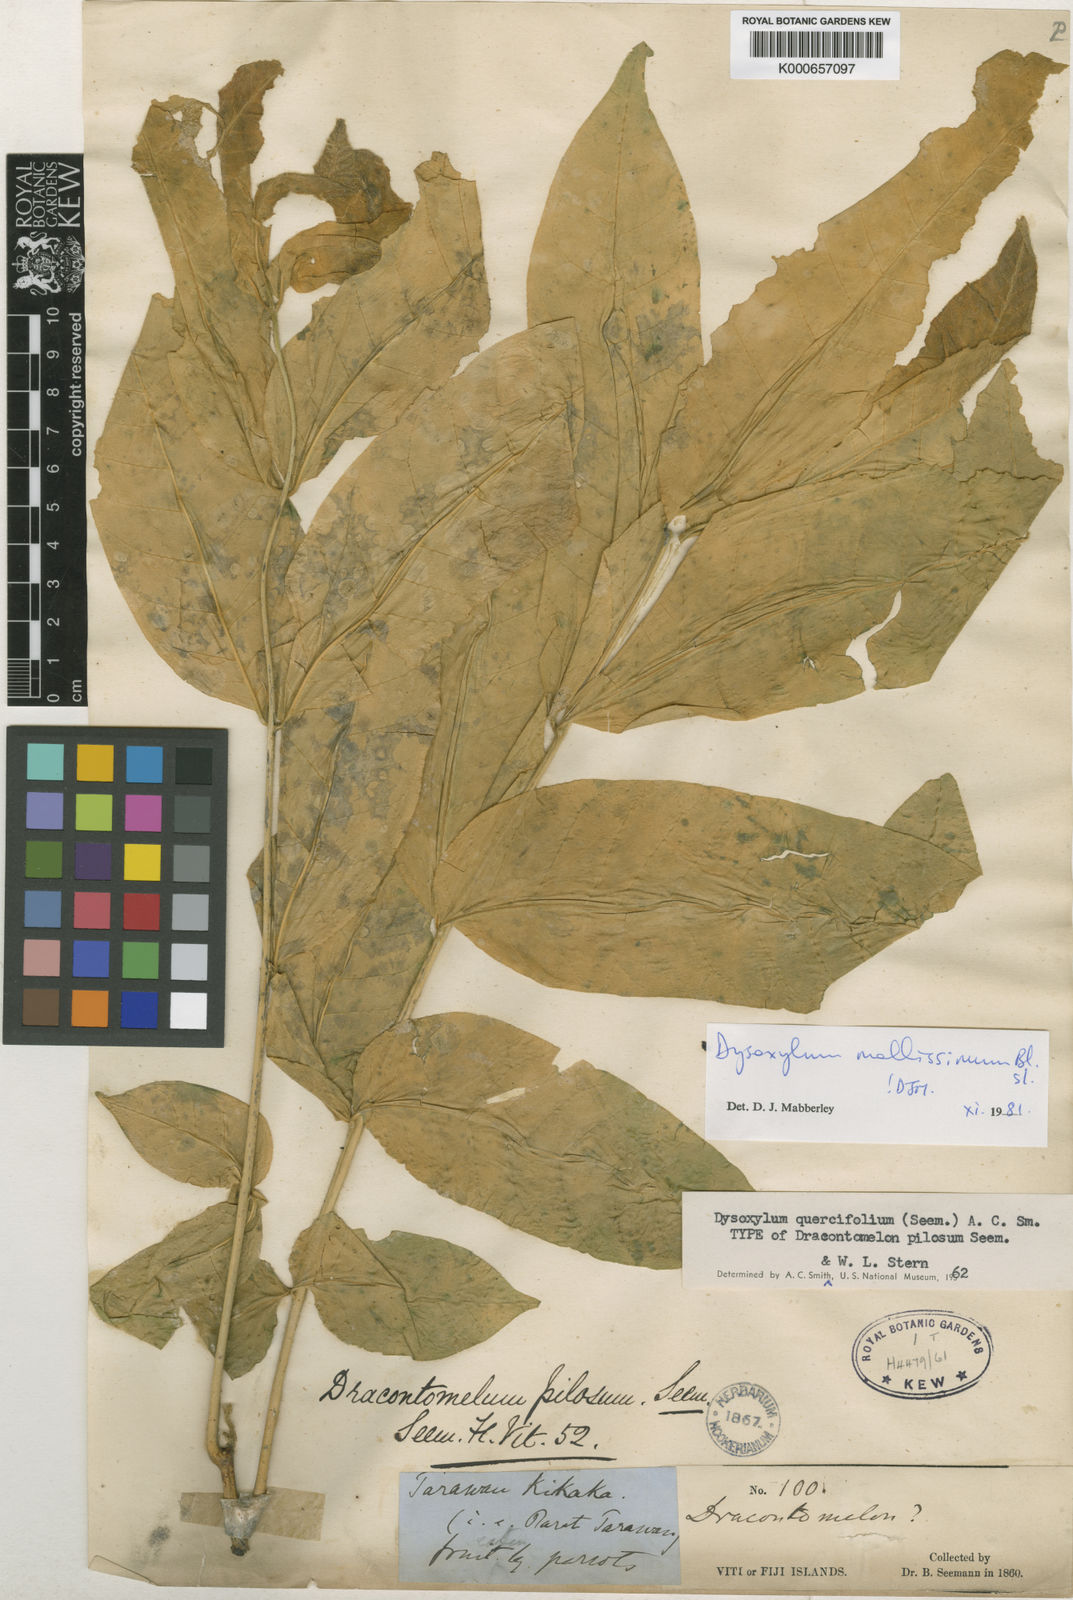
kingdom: Plantae
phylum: Tracheophyta
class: Magnoliopsida
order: Sapindales
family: Meliaceae
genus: Dysoxylum
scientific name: Dysoxylum mollissimum
